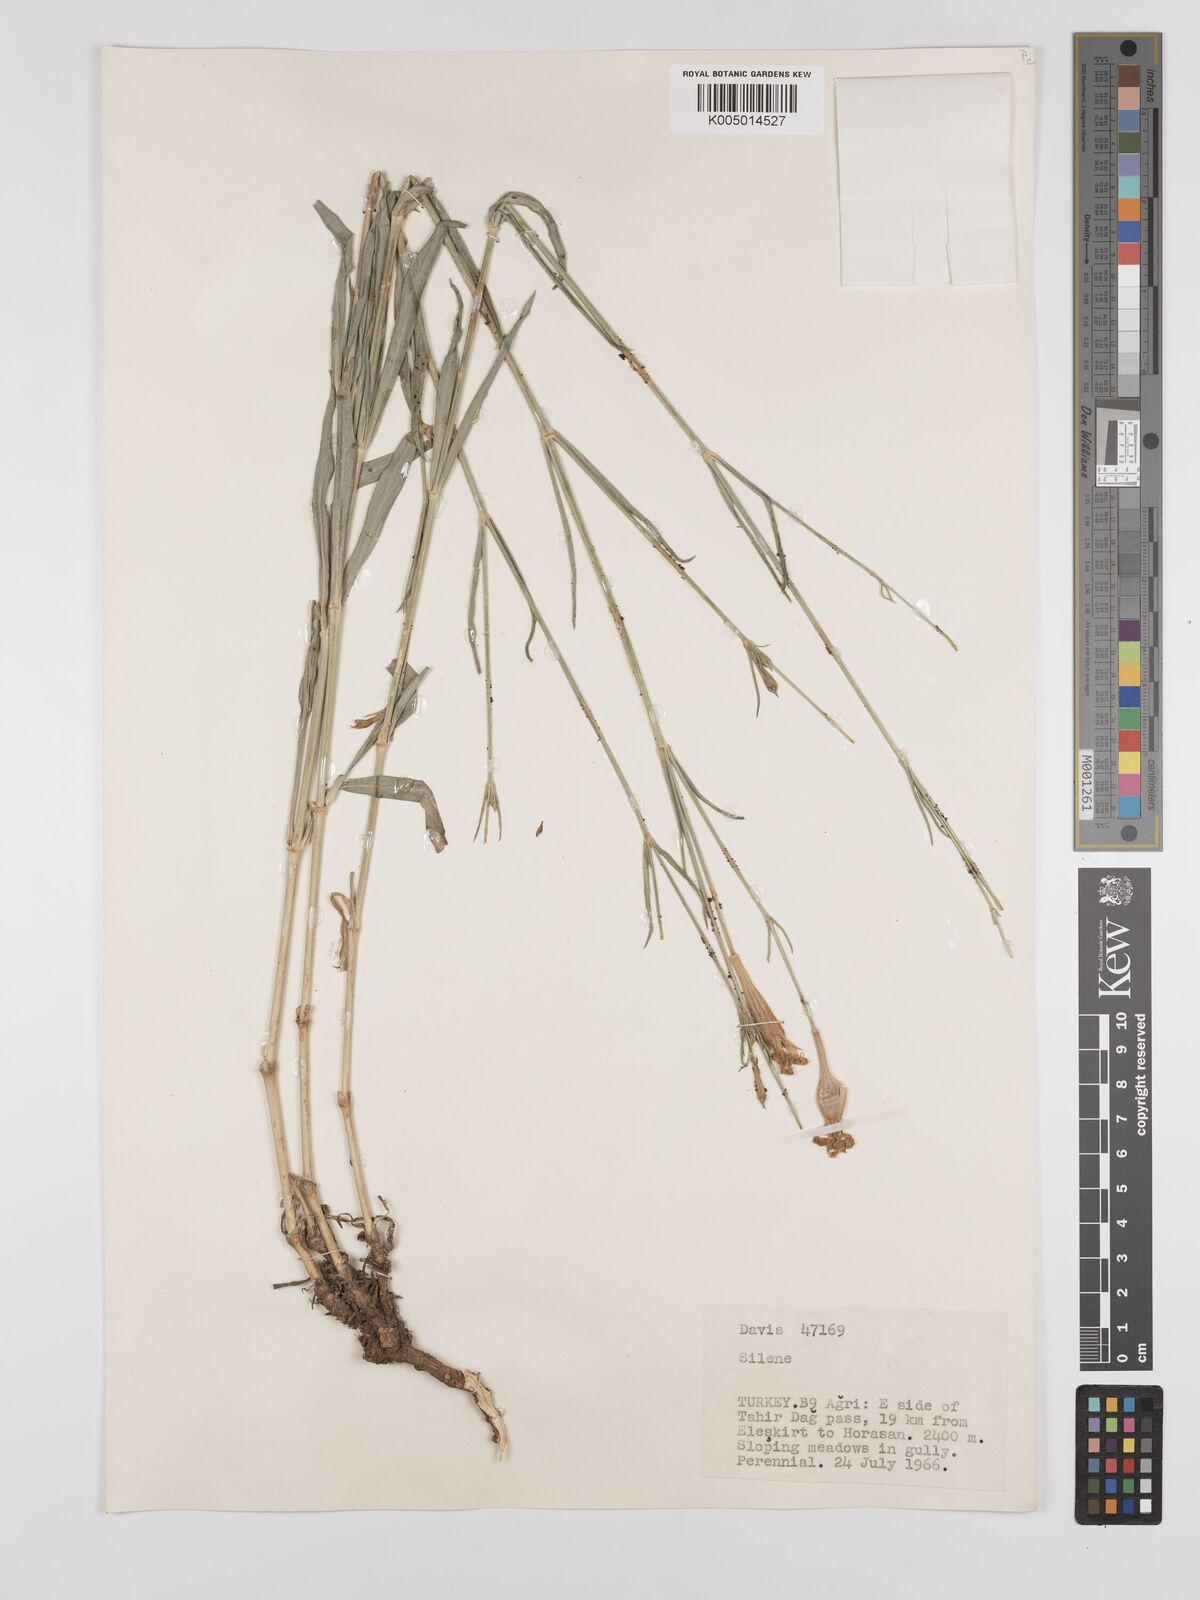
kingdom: Plantae
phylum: Tracheophyta
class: Magnoliopsida
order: Caryophyllales
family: Caryophyllaceae
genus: Silene
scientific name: Silene
